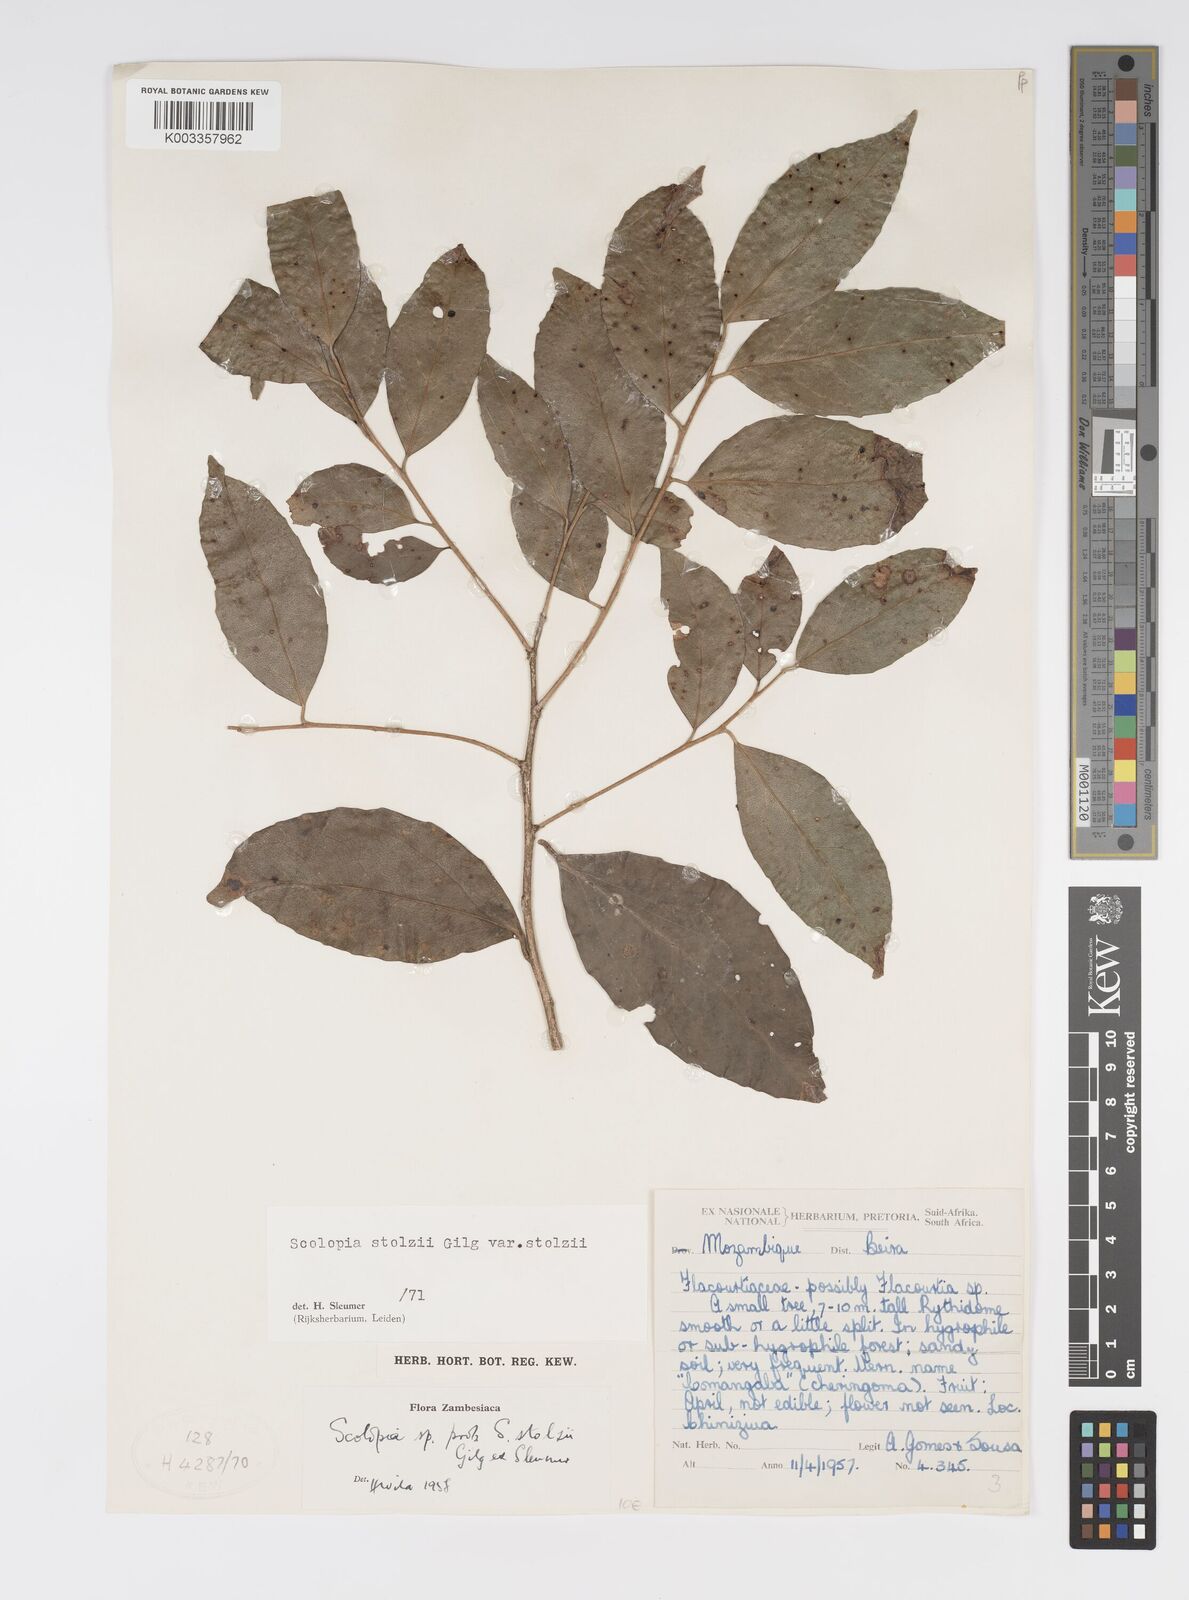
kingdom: Plantae
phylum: Tracheophyta
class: Magnoliopsida
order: Malpighiales
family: Salicaceae
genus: Scolopia
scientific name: Scolopia stolzii
